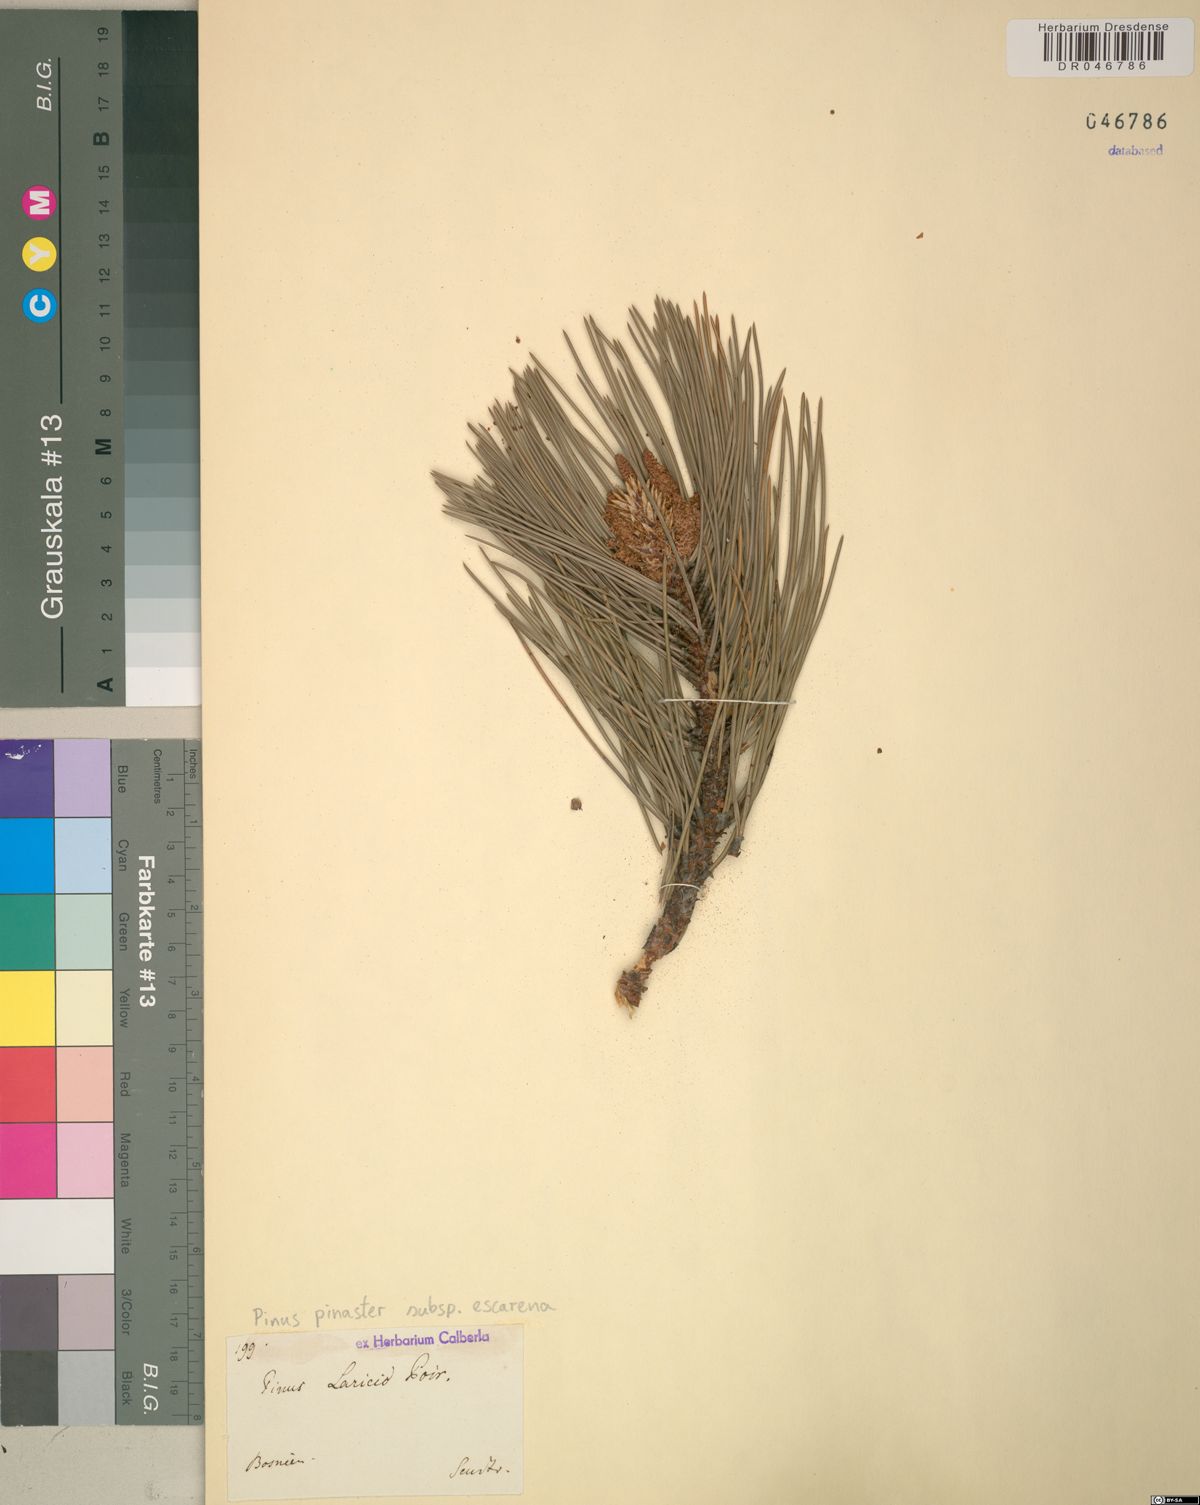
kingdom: Plantae
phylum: Tracheophyta
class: Pinopsida
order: Pinales
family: Pinaceae
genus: Pinus
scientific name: Pinus pinaster
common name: Maritime pine
